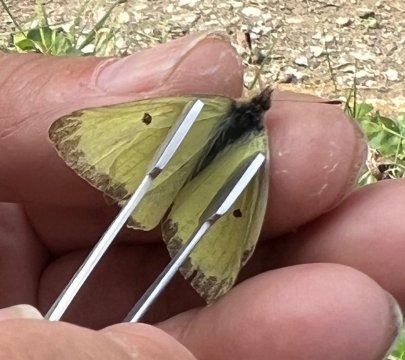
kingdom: Animalia
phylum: Arthropoda
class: Insecta
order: Lepidoptera
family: Pieridae
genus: Colias
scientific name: Colias gigantea
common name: Giant Sulphur
